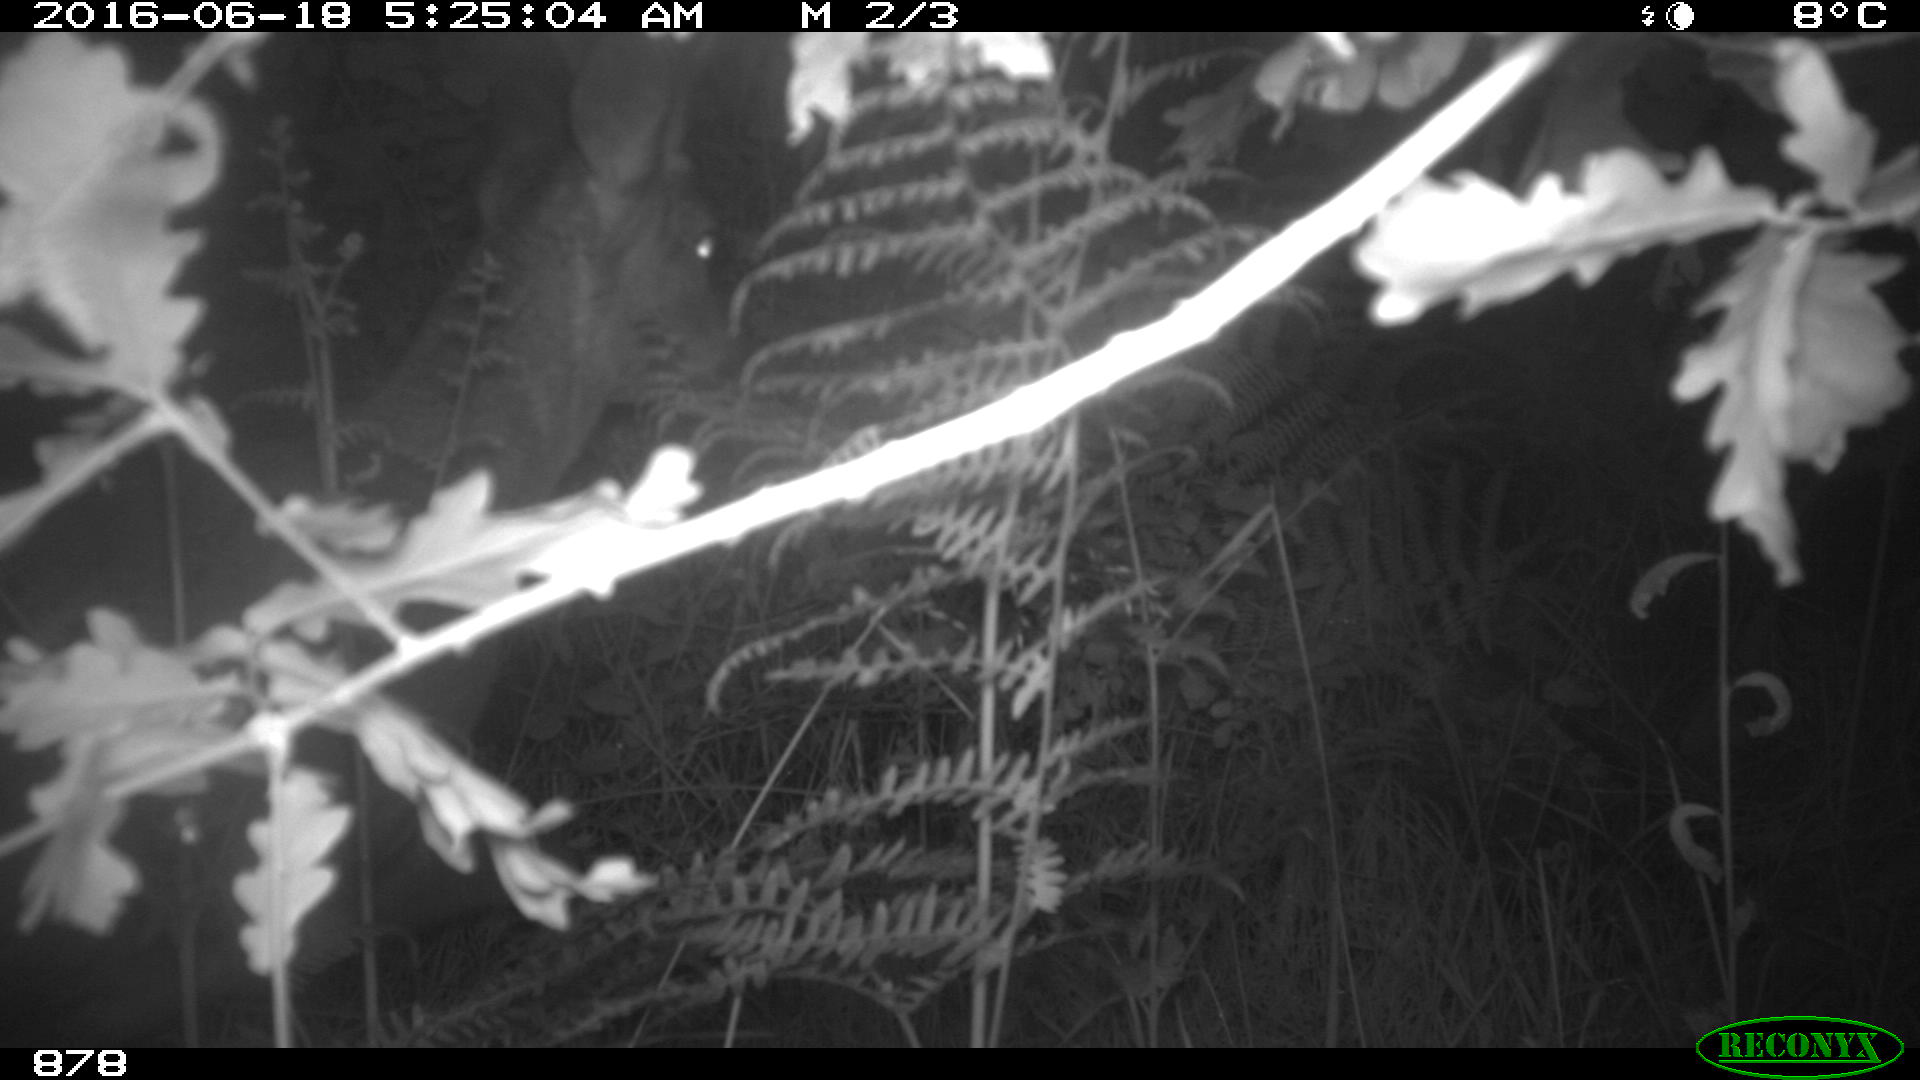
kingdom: Animalia
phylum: Chordata
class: Mammalia
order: Artiodactyla
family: Cervidae
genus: Capreolus
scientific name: Capreolus capreolus
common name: Western roe deer
